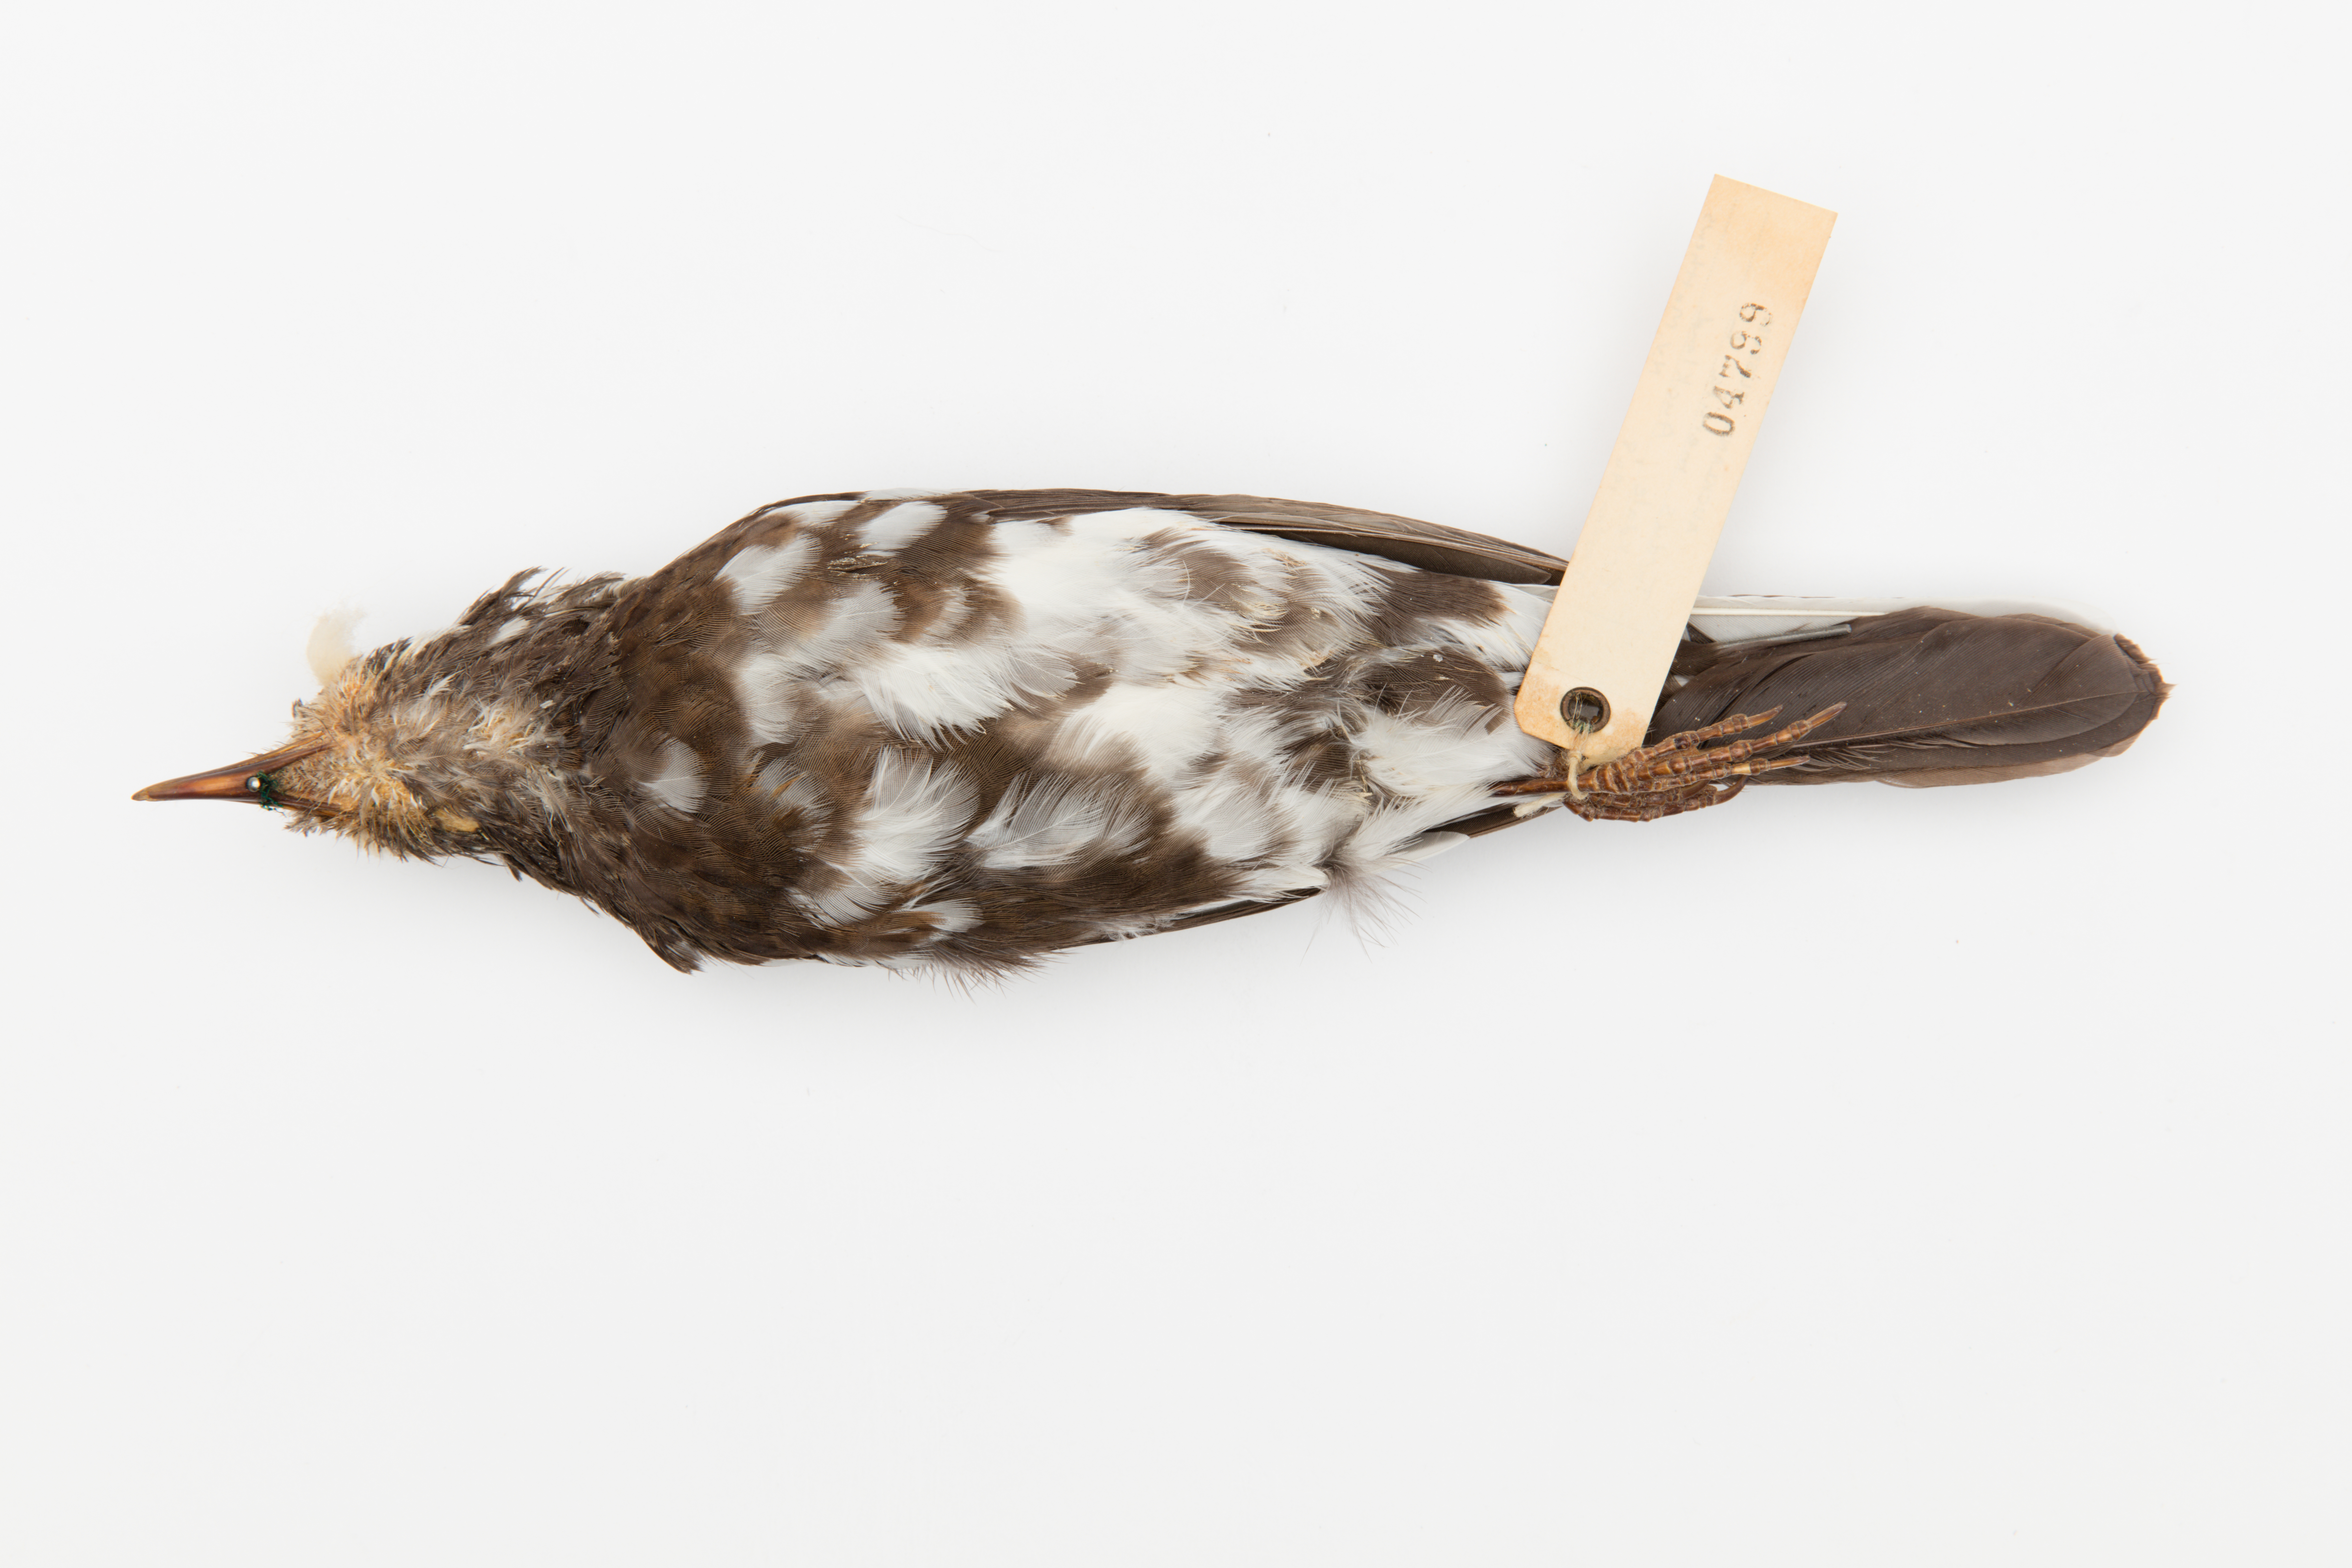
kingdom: Animalia
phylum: Chordata
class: Aves
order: Passeriformes
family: Turdidae
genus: Turdus
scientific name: Turdus merula
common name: Common blackbird
